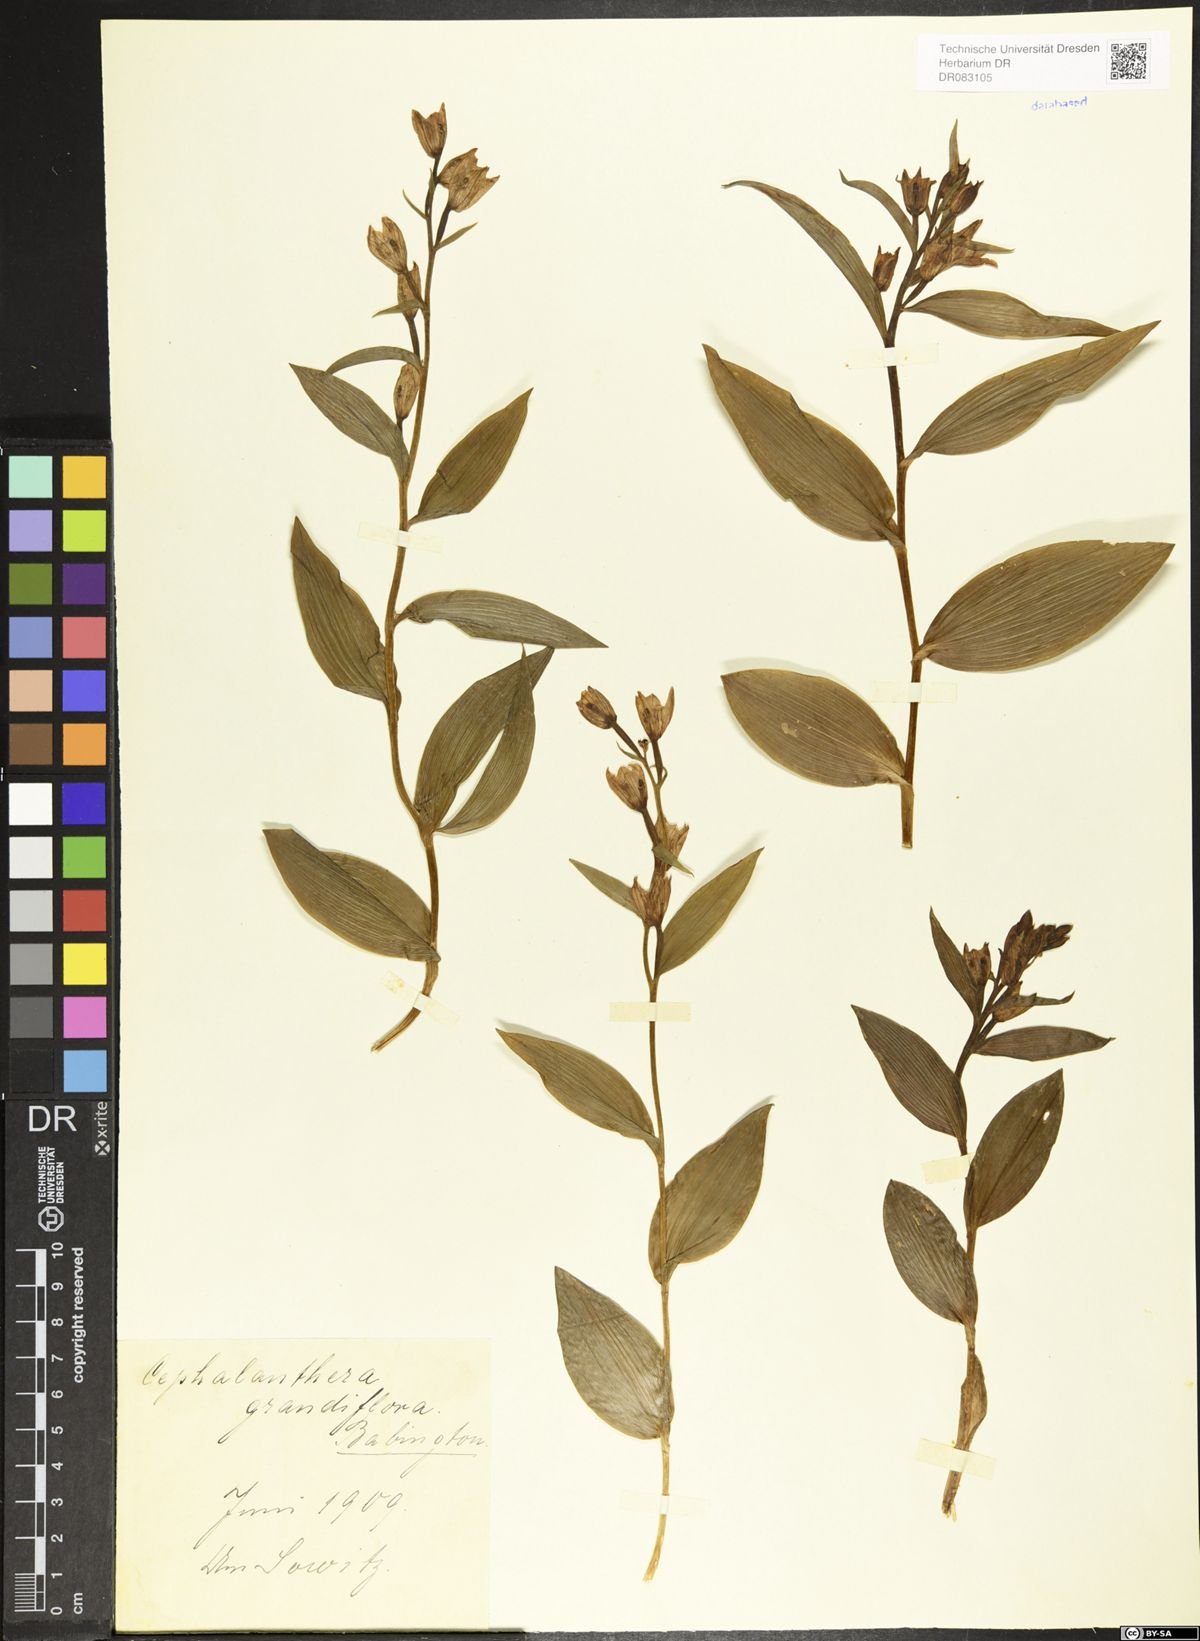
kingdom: Plantae
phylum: Tracheophyta
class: Liliopsida
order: Asparagales
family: Orchidaceae
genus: Cephalanthera
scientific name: Cephalanthera longifolia
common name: Narrow-leaved helleborine
